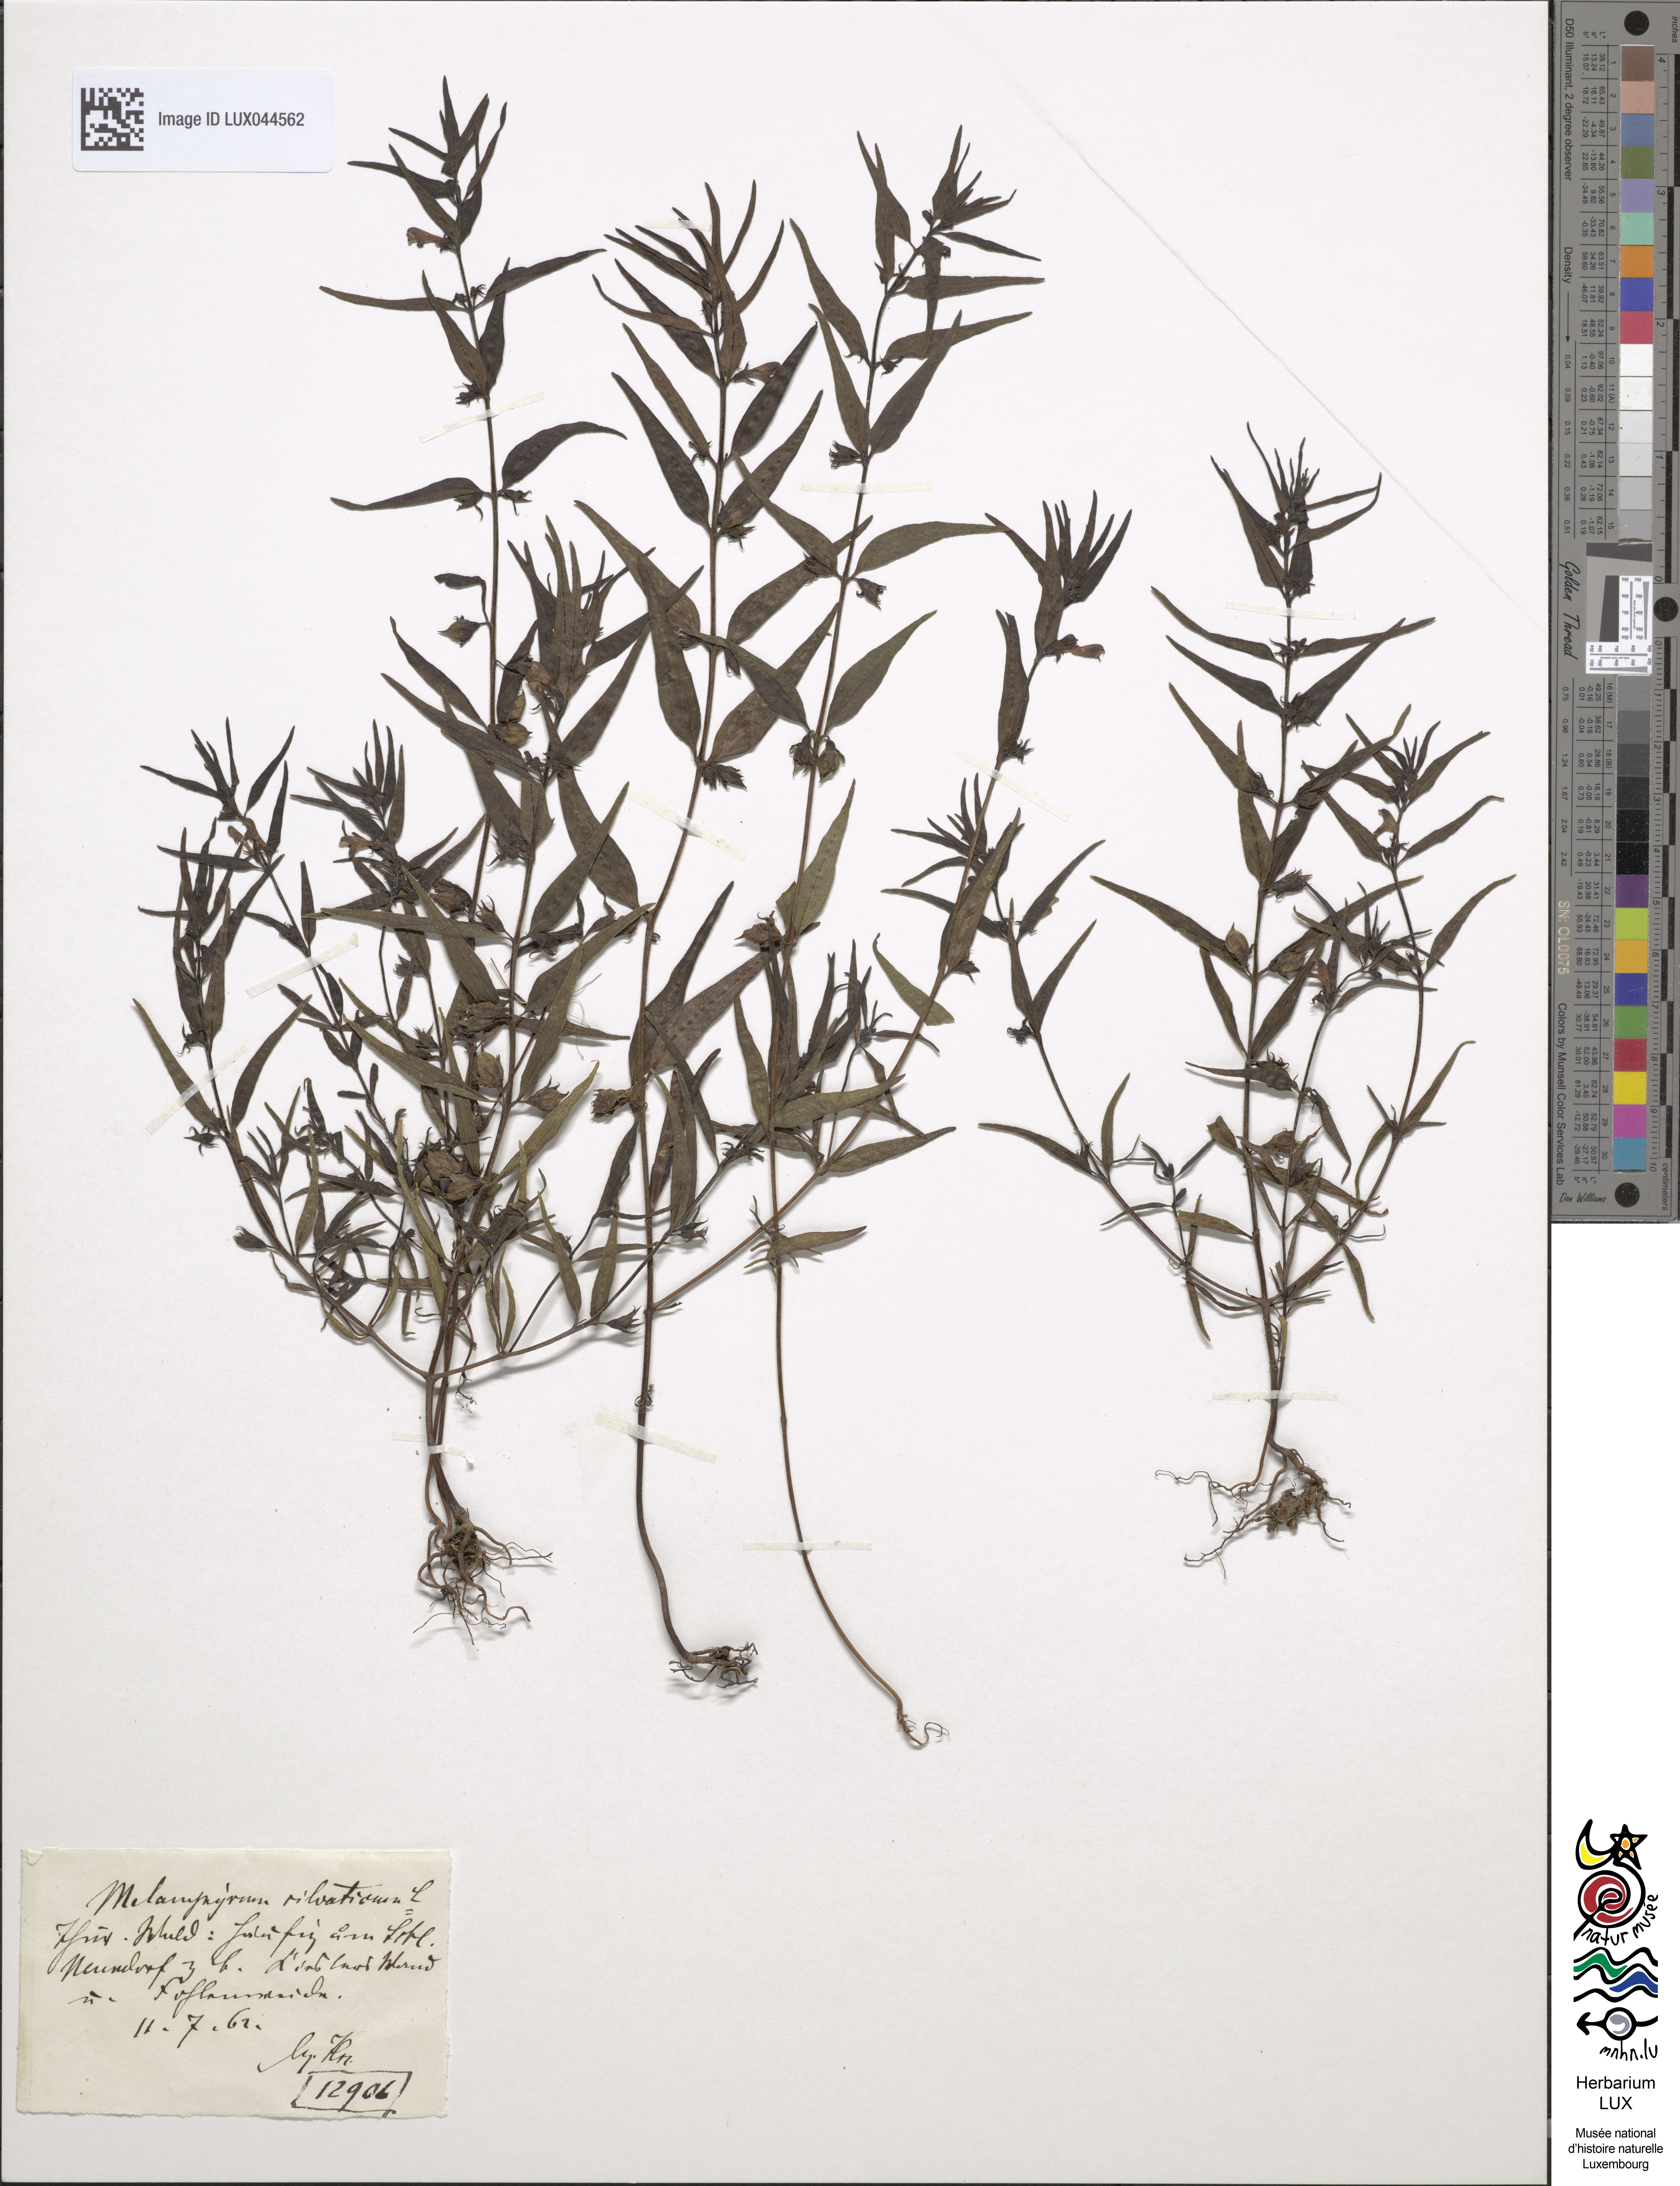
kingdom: Plantae
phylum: Tracheophyta
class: Magnoliopsida
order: Lamiales
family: Orobanchaceae
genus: Melampyrum
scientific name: Melampyrum sylvaticum
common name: Small cow-wheat
